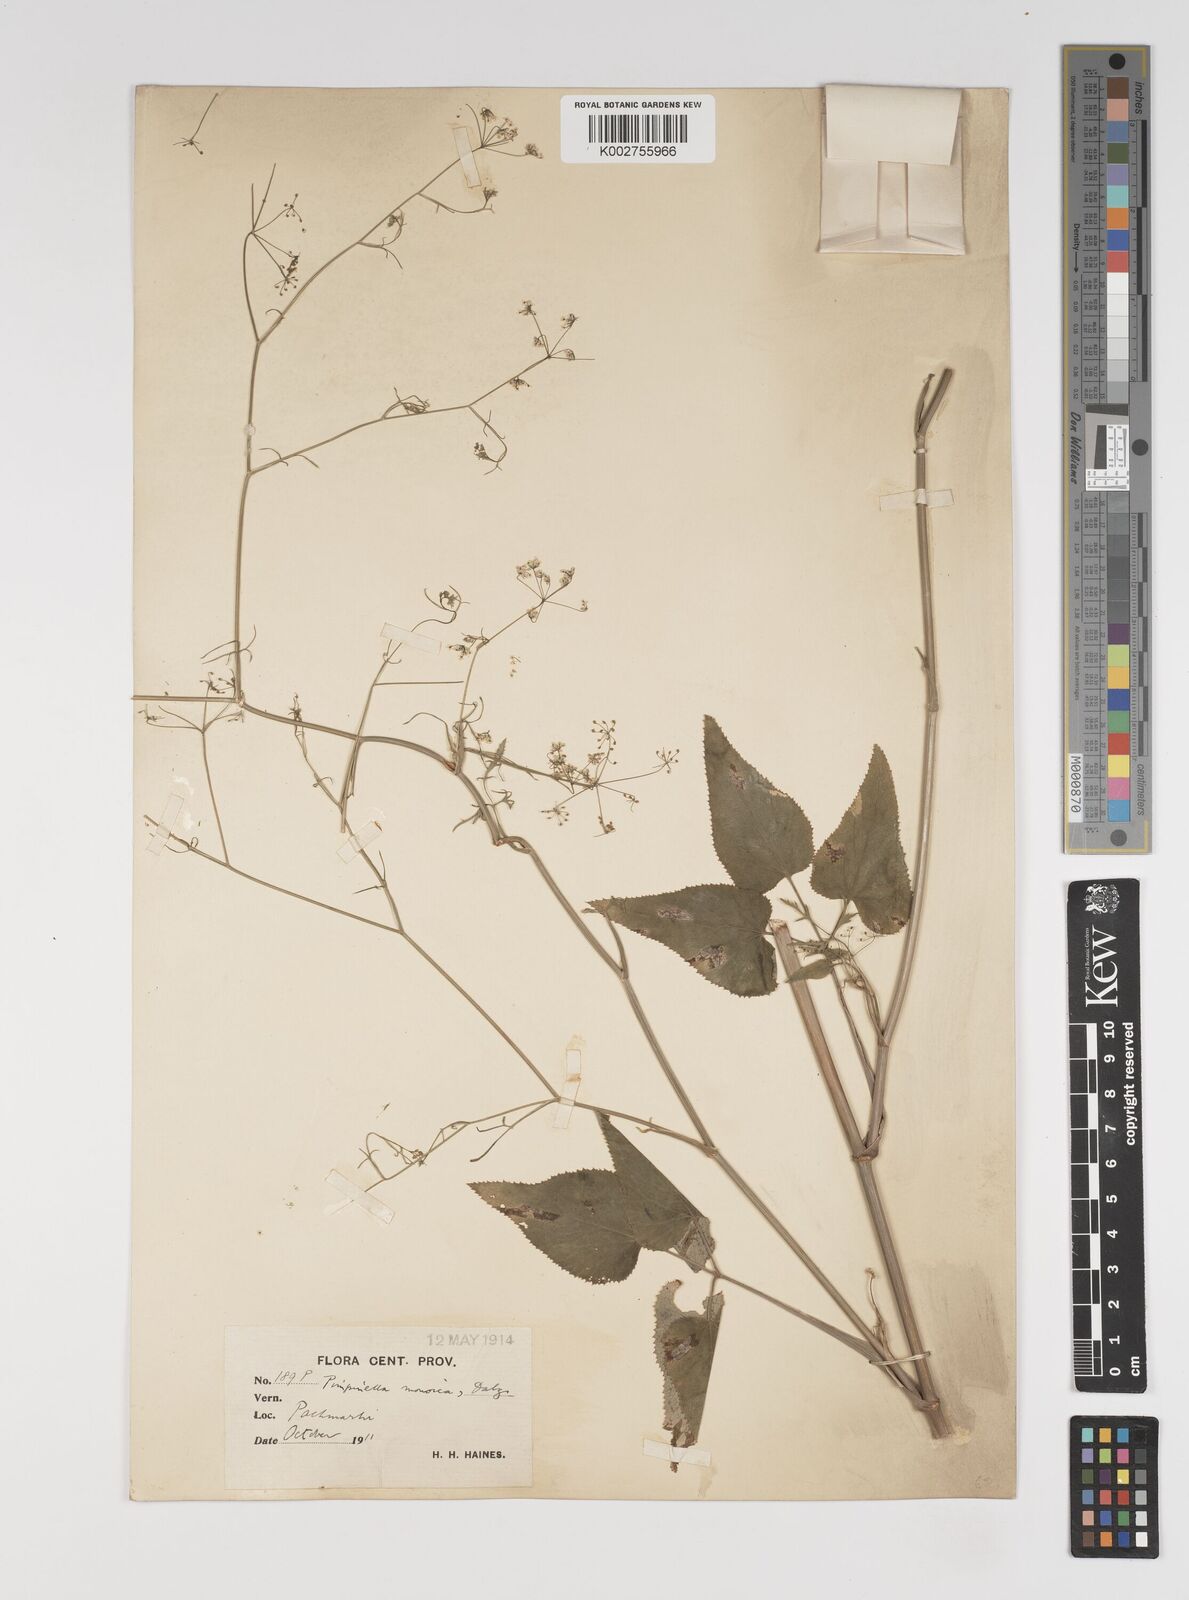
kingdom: Plantae
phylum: Tracheophyta
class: Magnoliopsida
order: Apiales
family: Apiaceae
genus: Pimpinella
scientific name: Pimpinella wallichiana
